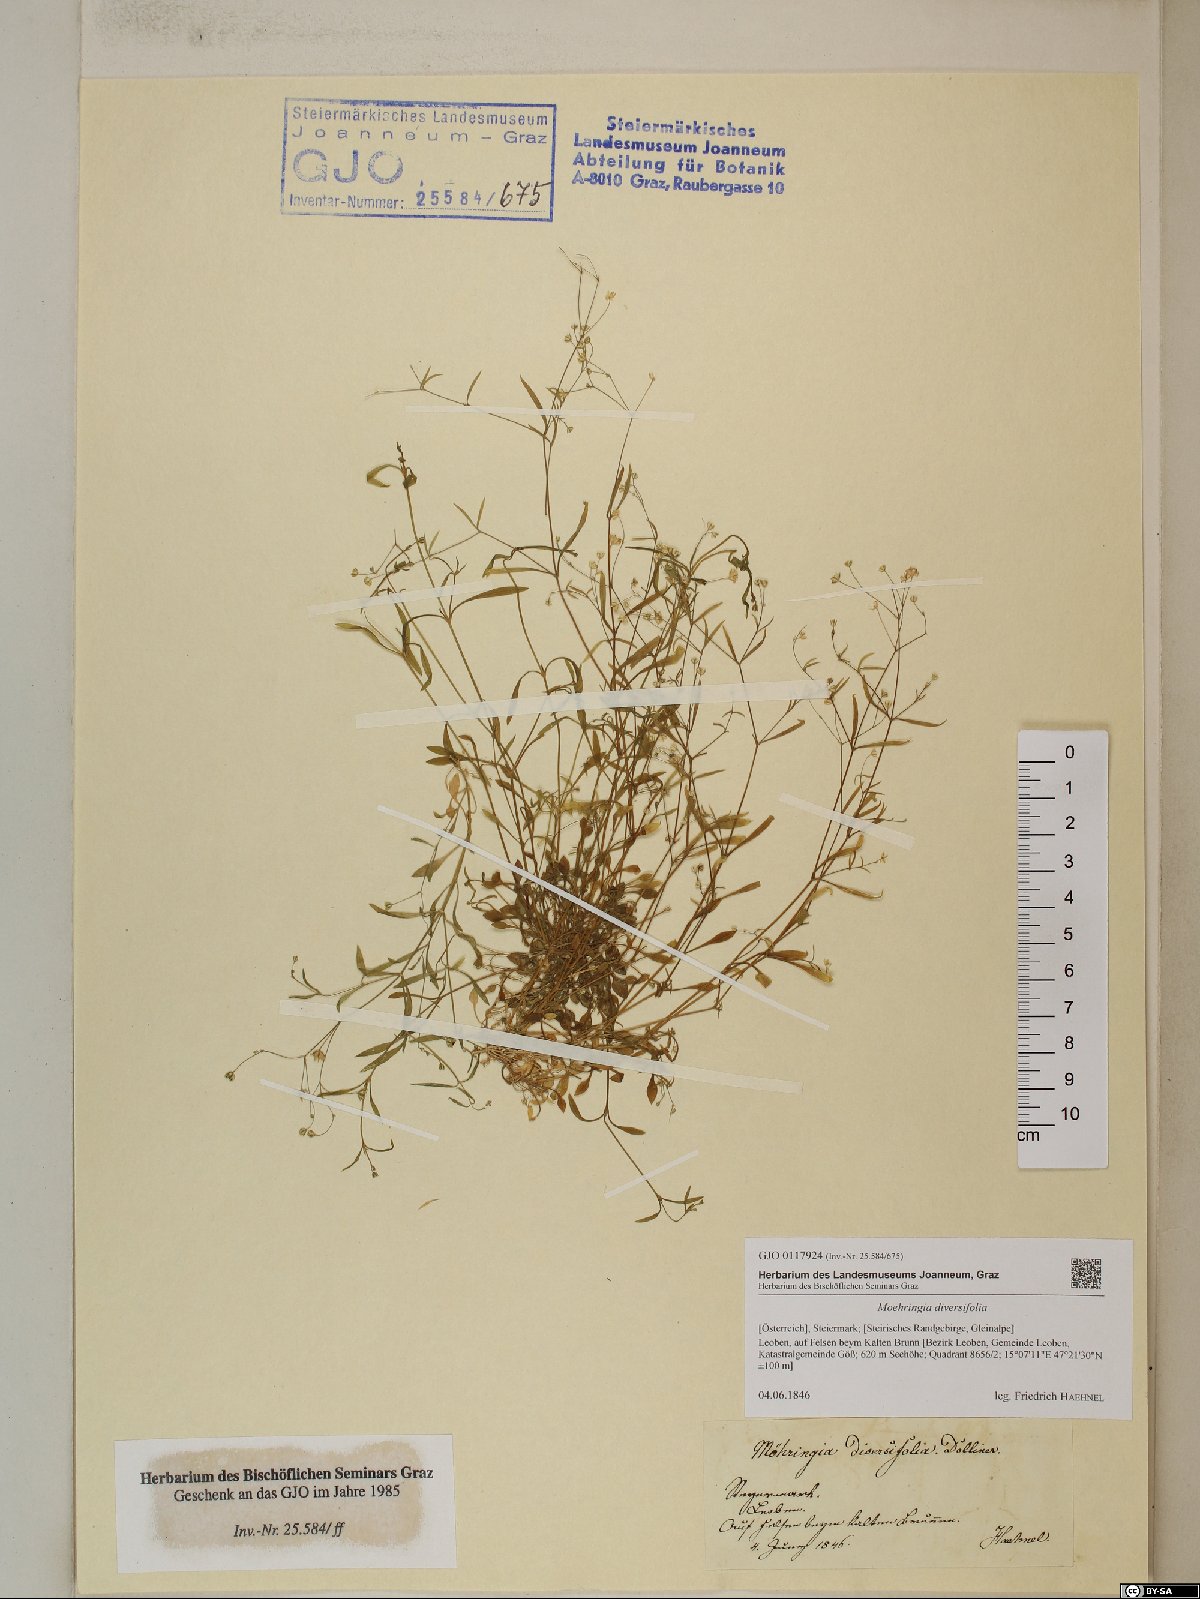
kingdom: Plantae
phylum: Tracheophyta
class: Magnoliopsida
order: Caryophyllales
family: Caryophyllaceae
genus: Moehringia
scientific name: Moehringia diversifolia
